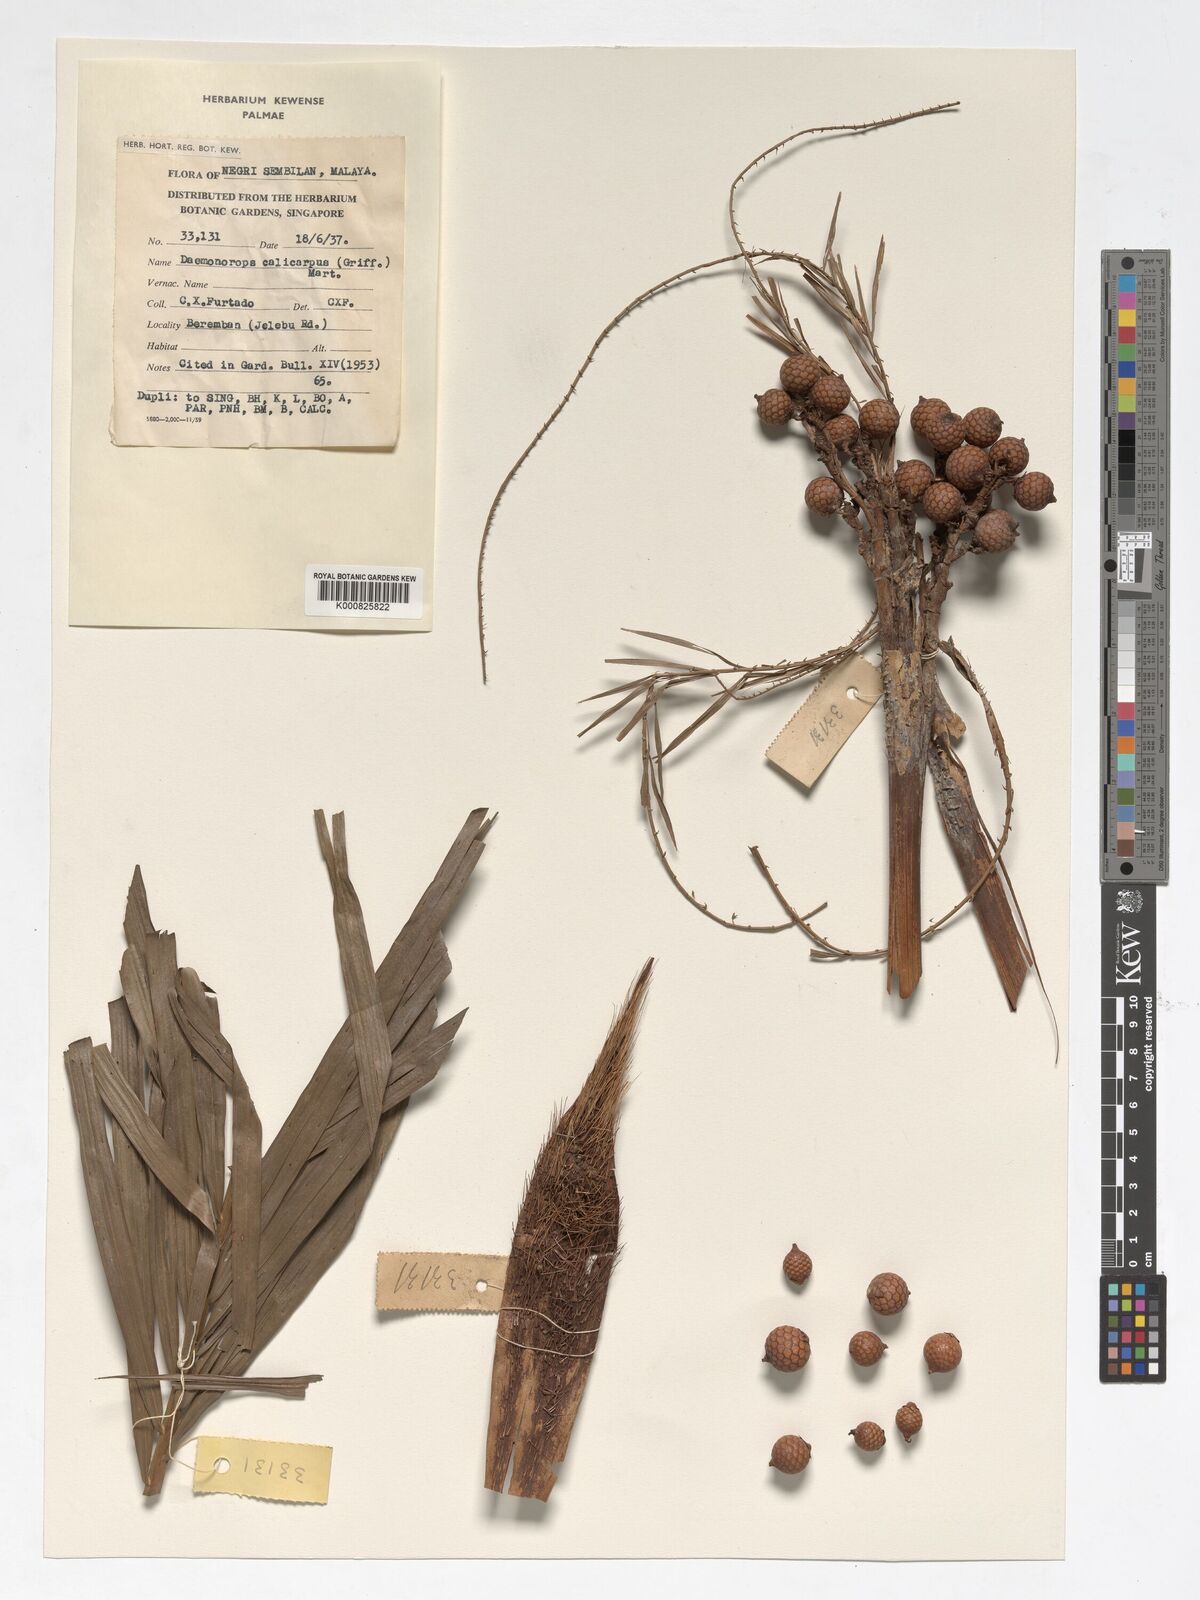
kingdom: Plantae
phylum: Tracheophyta
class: Liliopsida
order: Arecales
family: Arecaceae
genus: Calamus
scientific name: Calamus calicarpus
